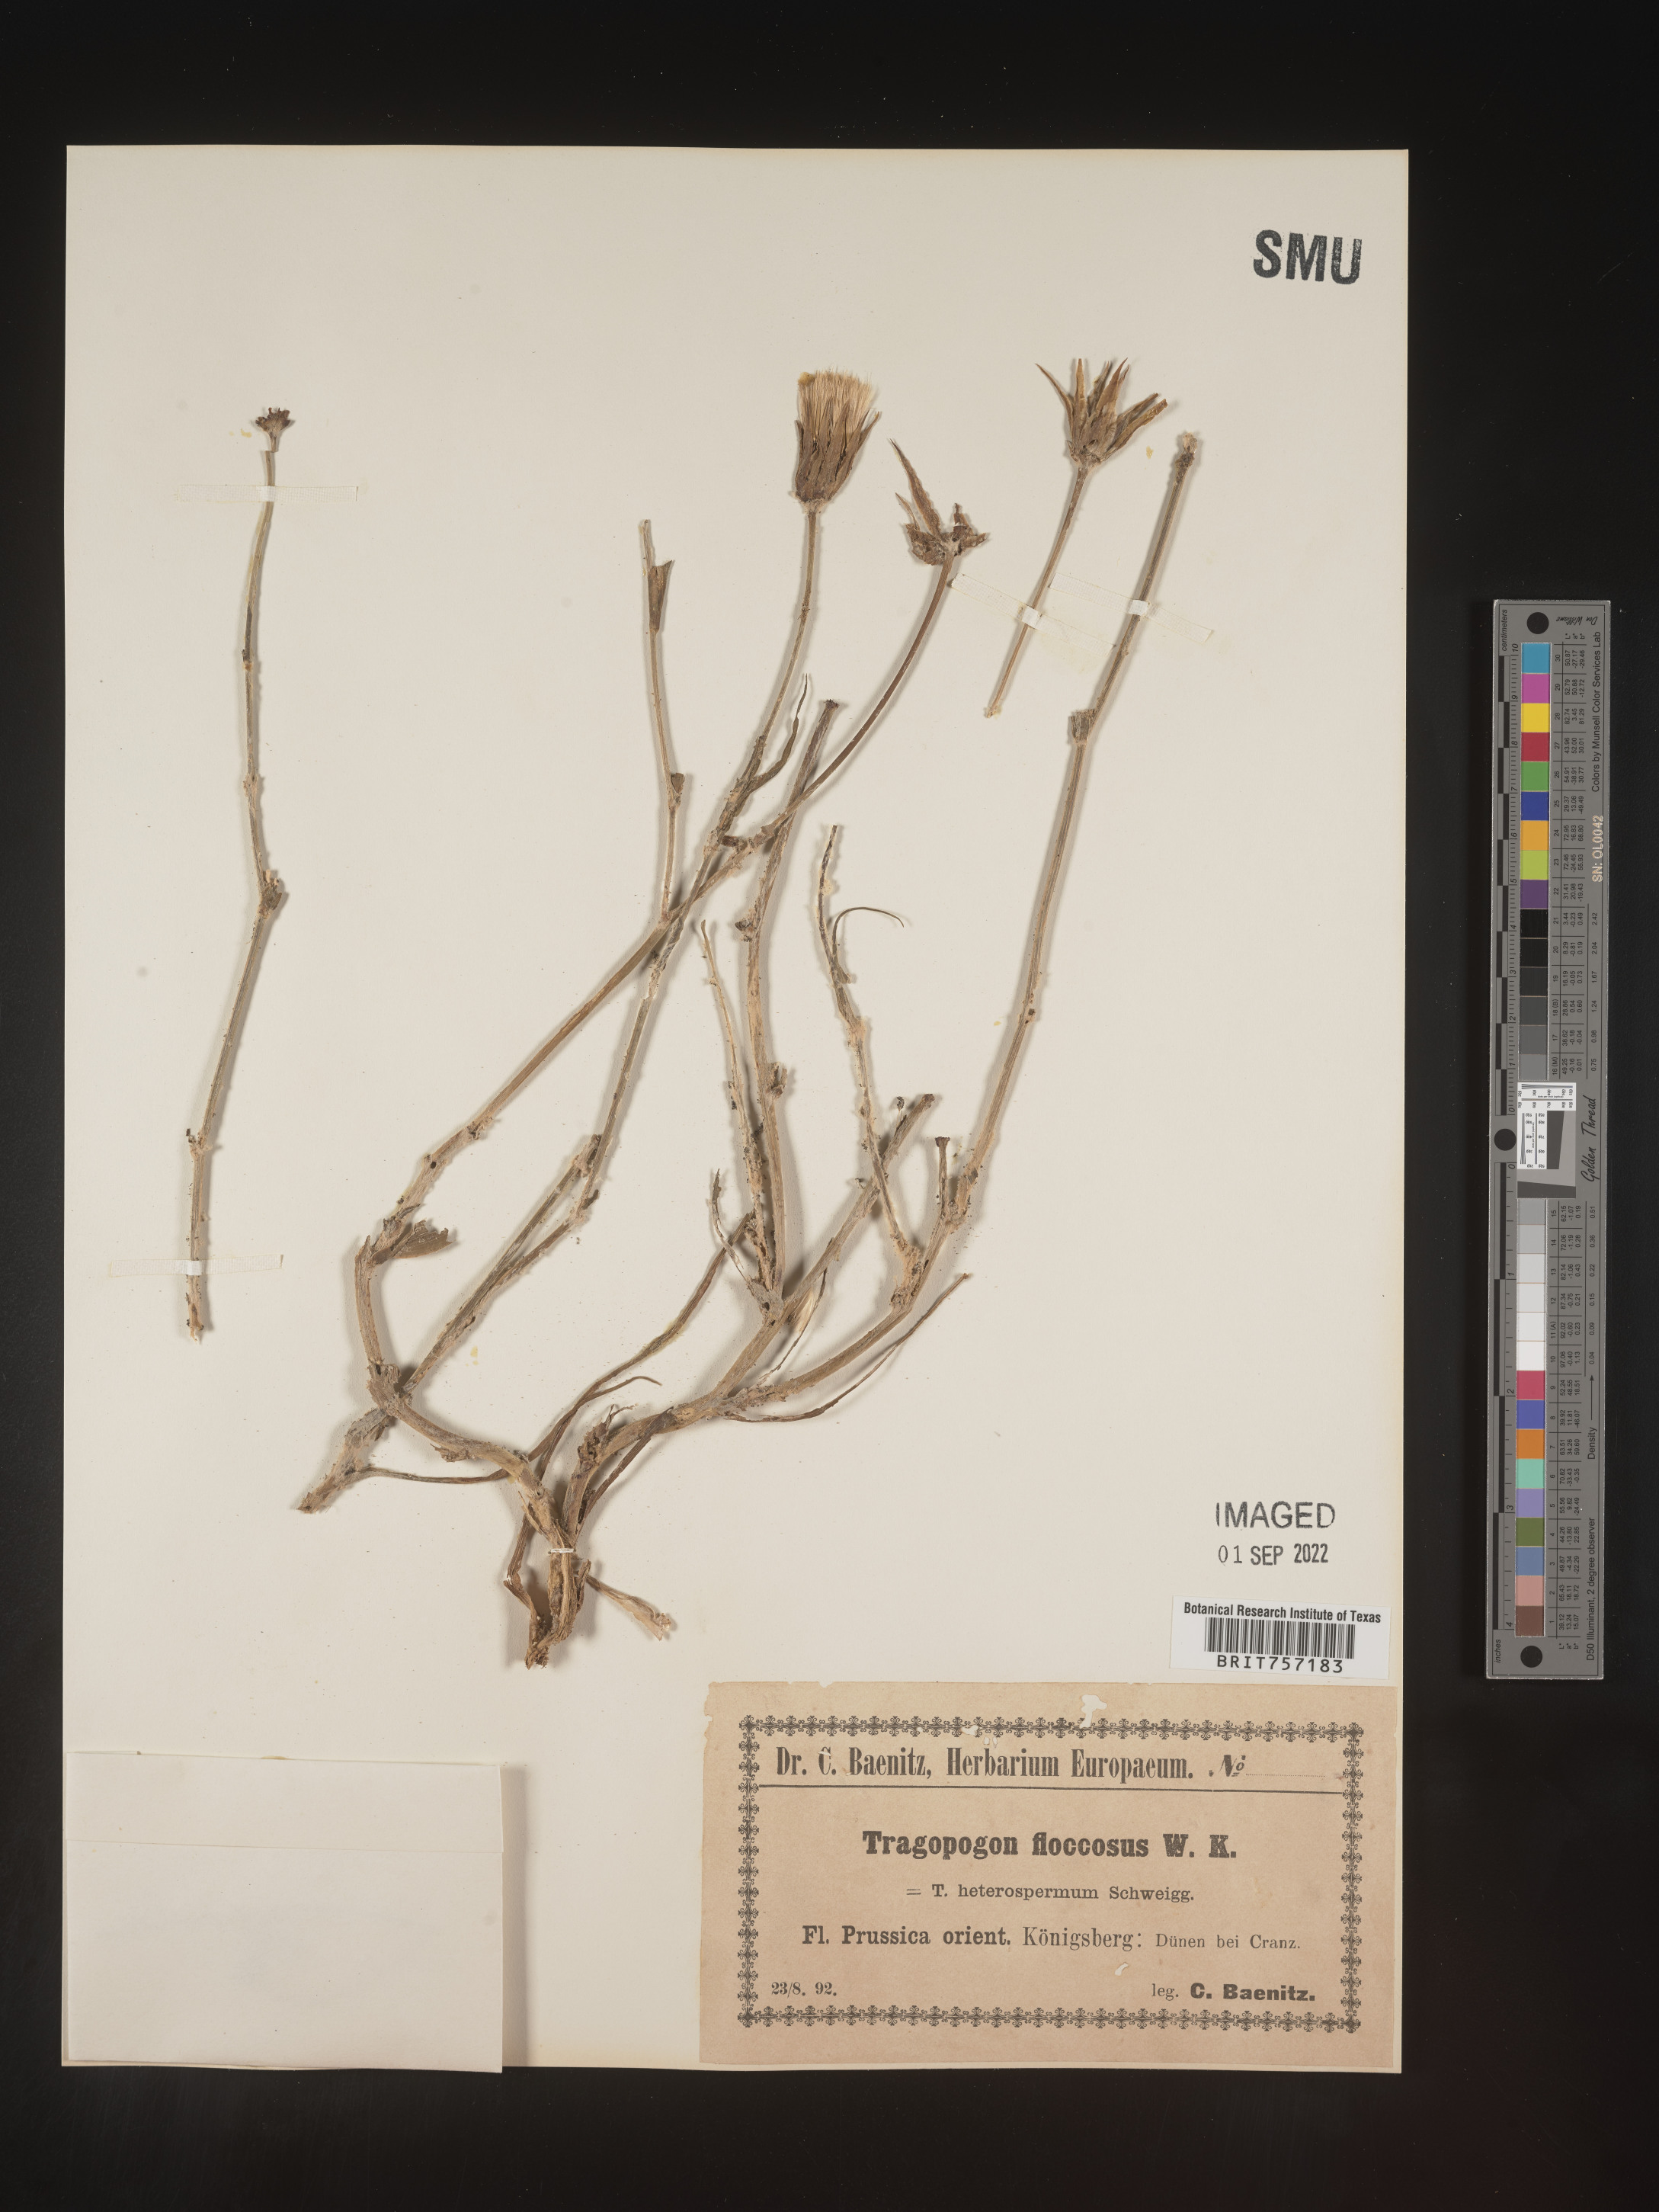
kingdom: Plantae
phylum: Tracheophyta
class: Magnoliopsida
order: Asterales
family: Asteraceae
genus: Tragopogon
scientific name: Tragopogon
